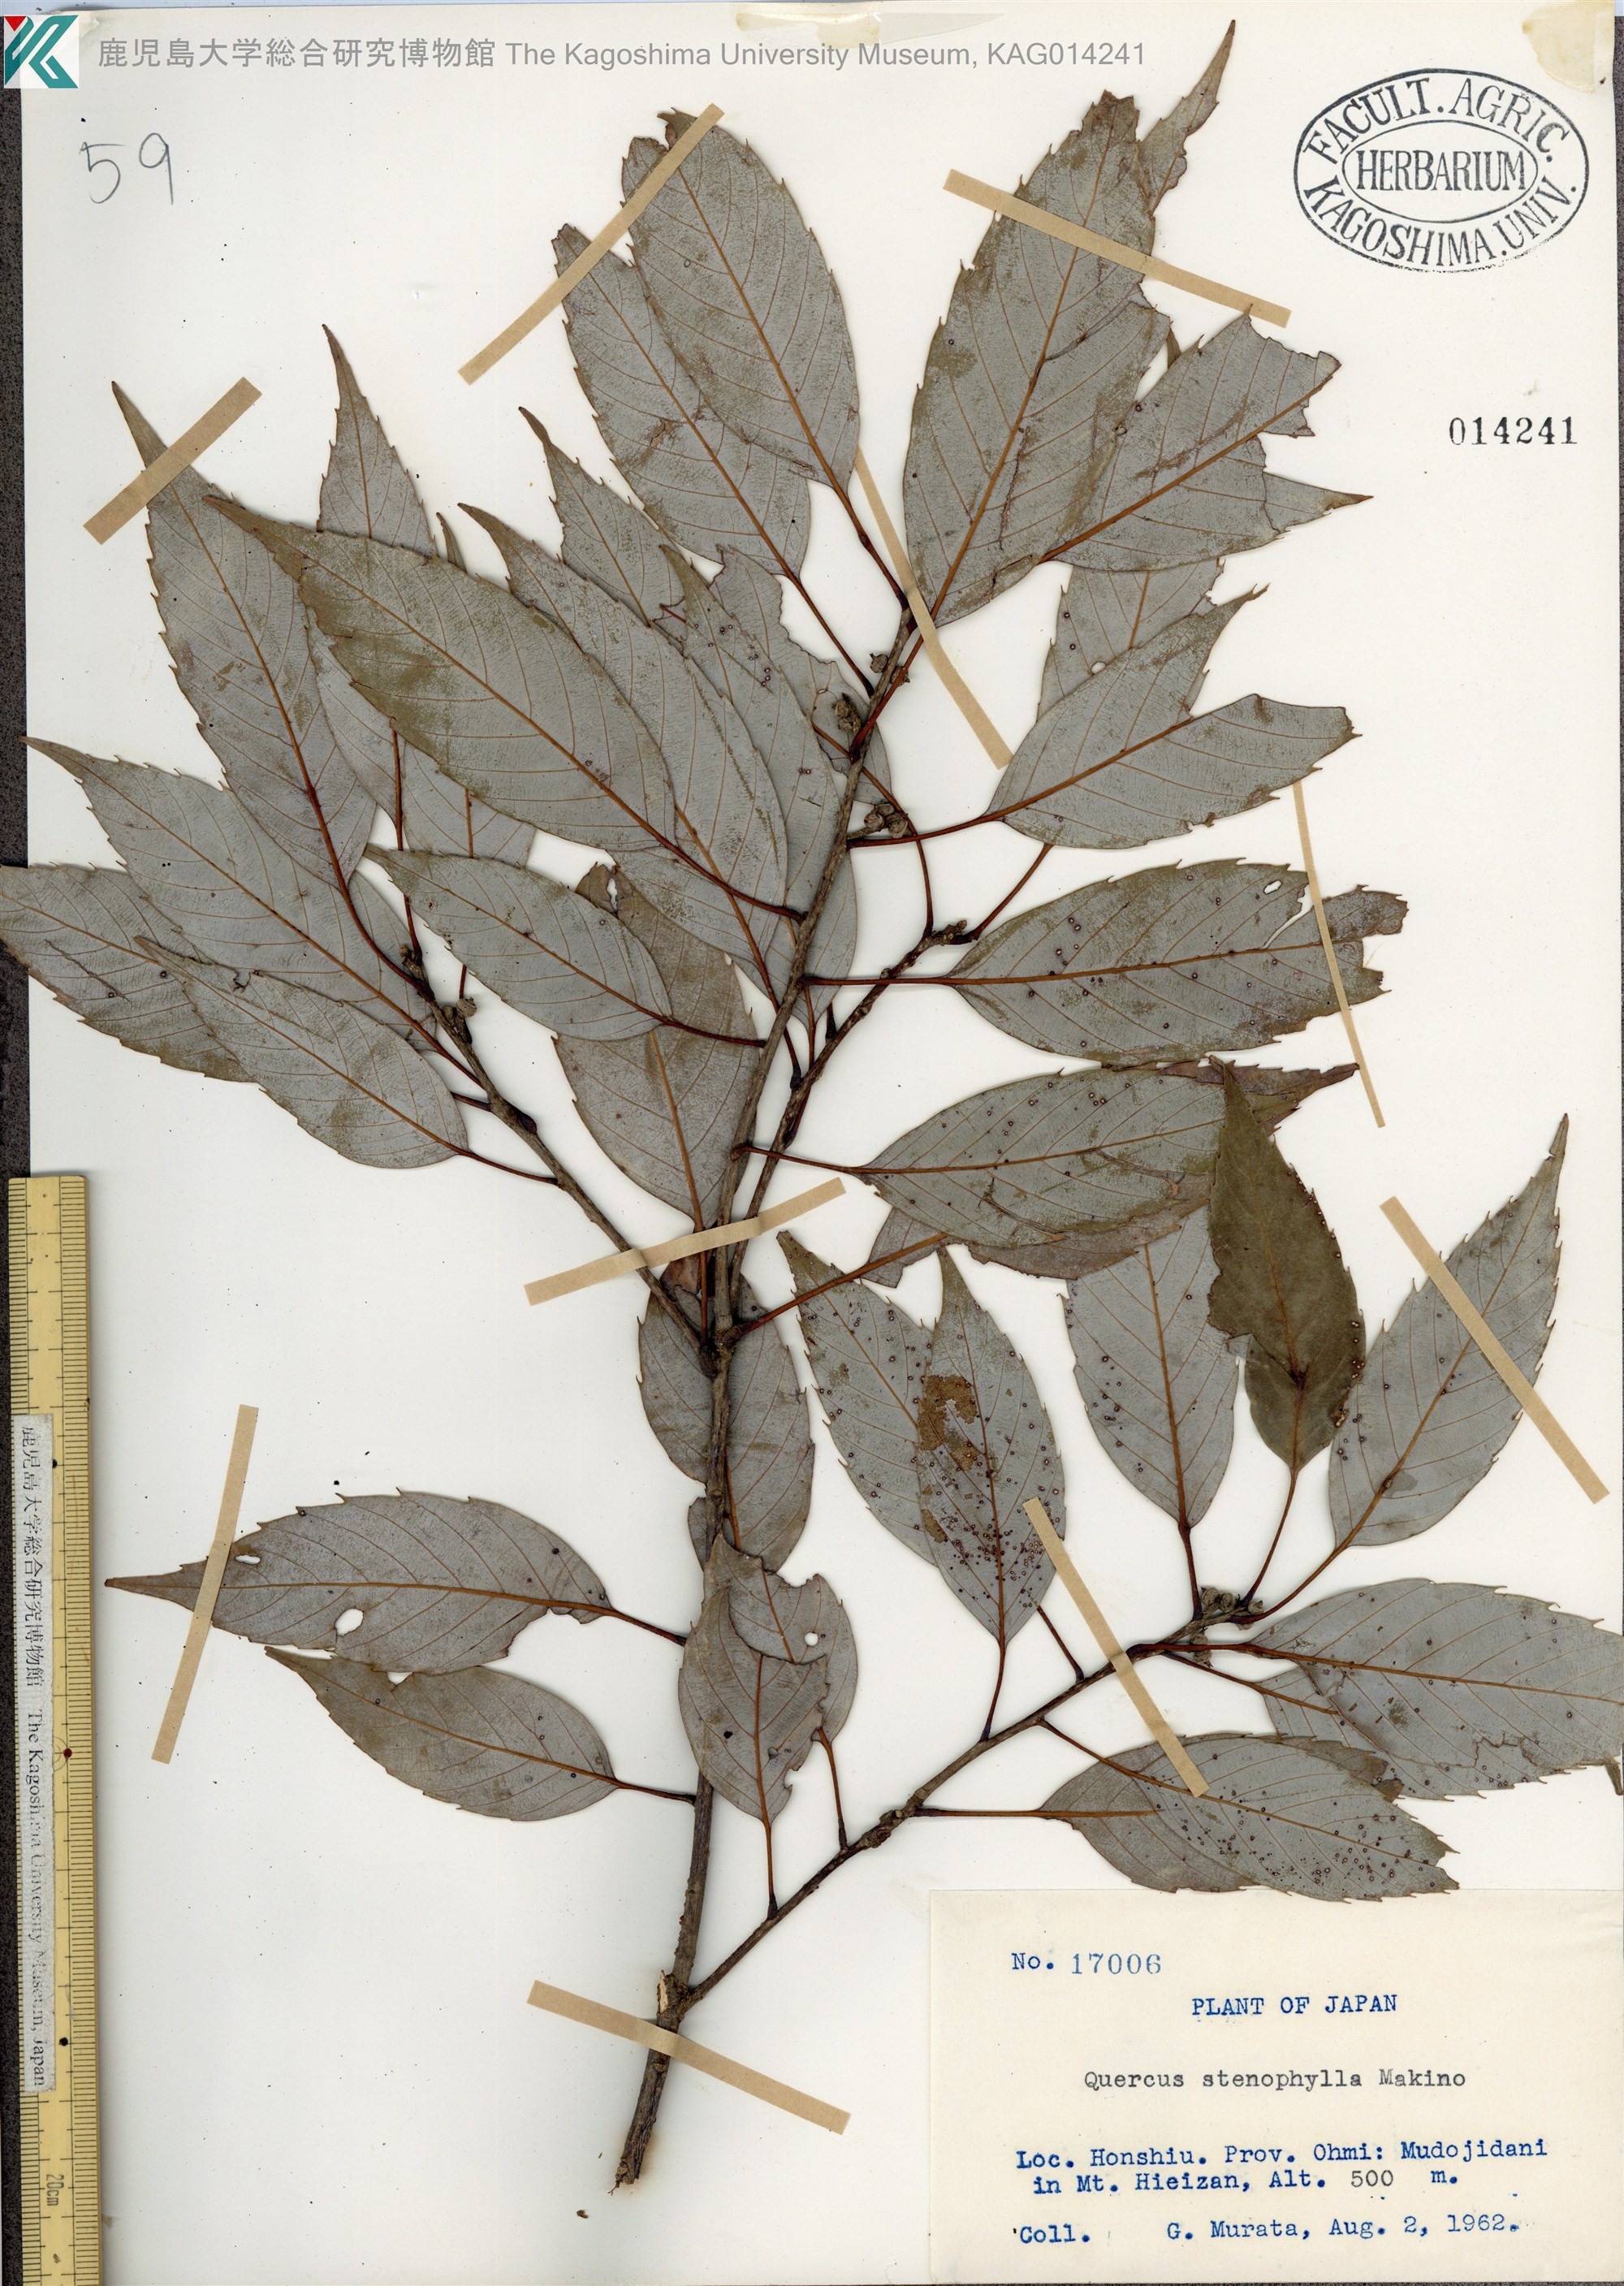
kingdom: Plantae
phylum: Tracheophyta
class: Magnoliopsida
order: Fagales
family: Fagaceae
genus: Quercus
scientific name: Quercus salicina
